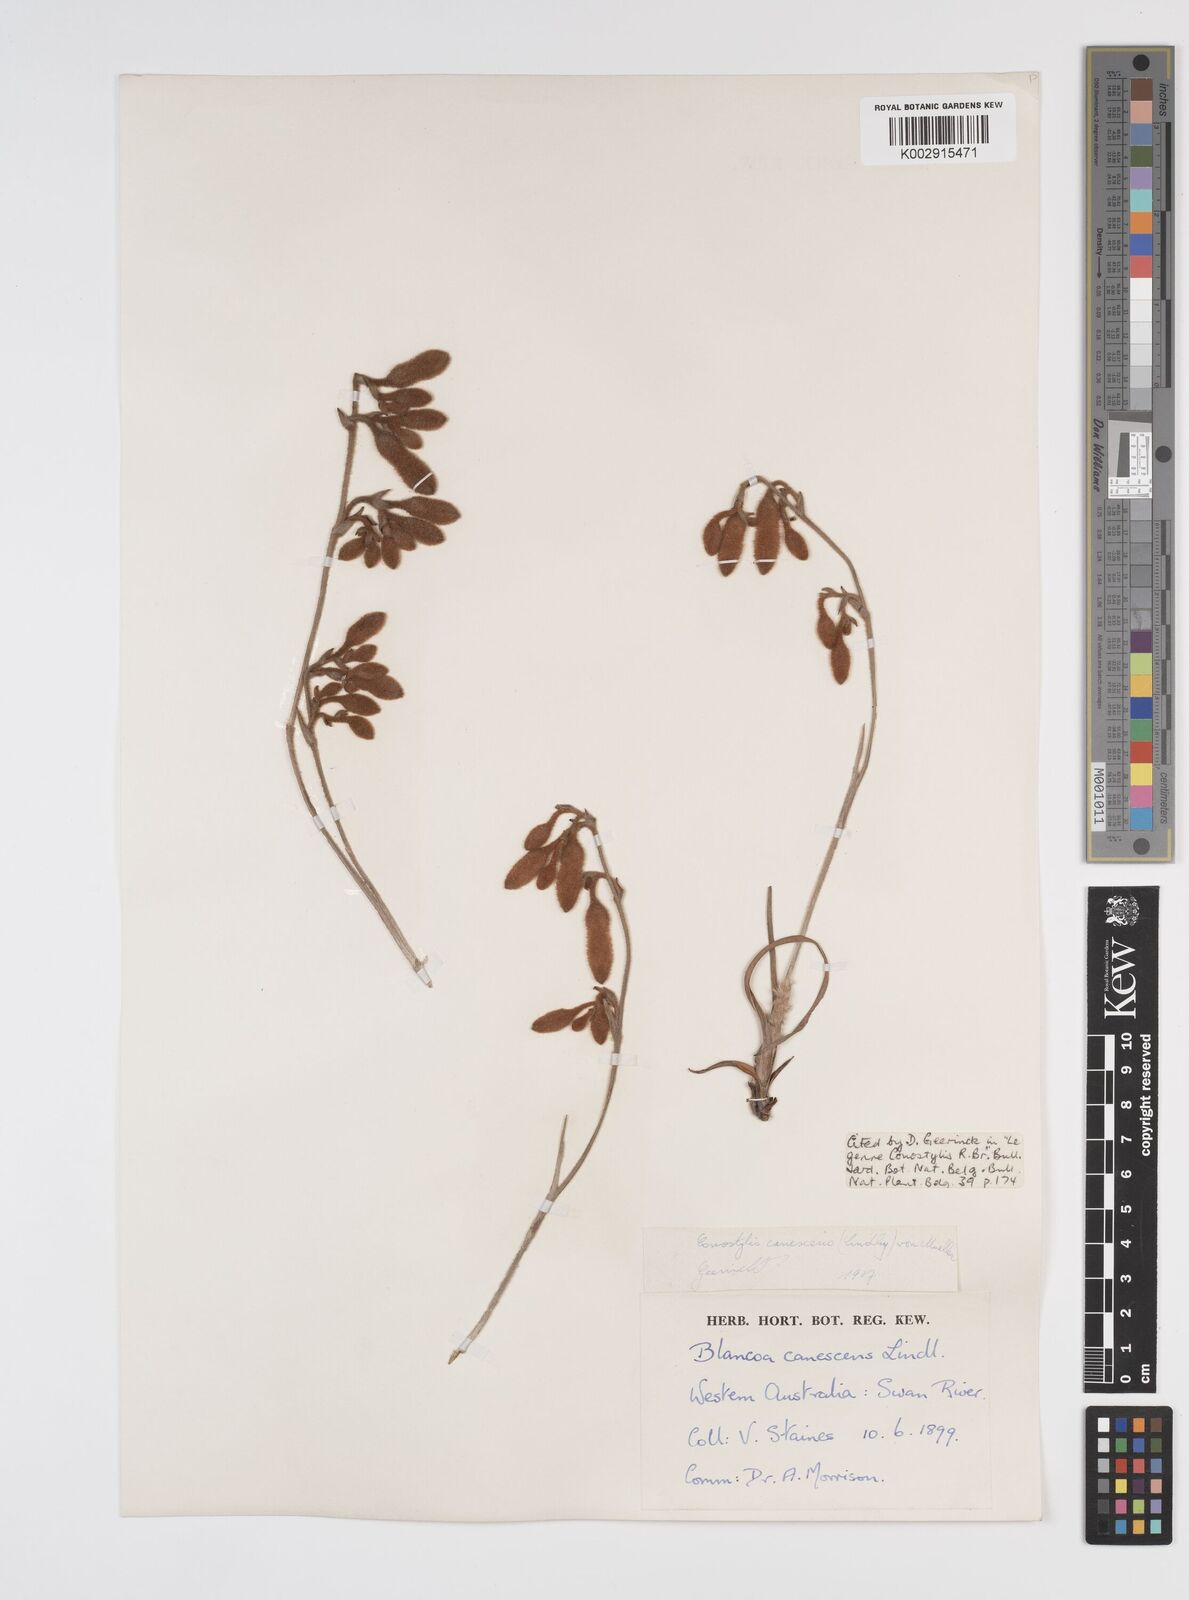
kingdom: Plantae
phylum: Tracheophyta
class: Liliopsida
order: Commelinales
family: Haemodoraceae
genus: Blancoa
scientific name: Blancoa canescens
